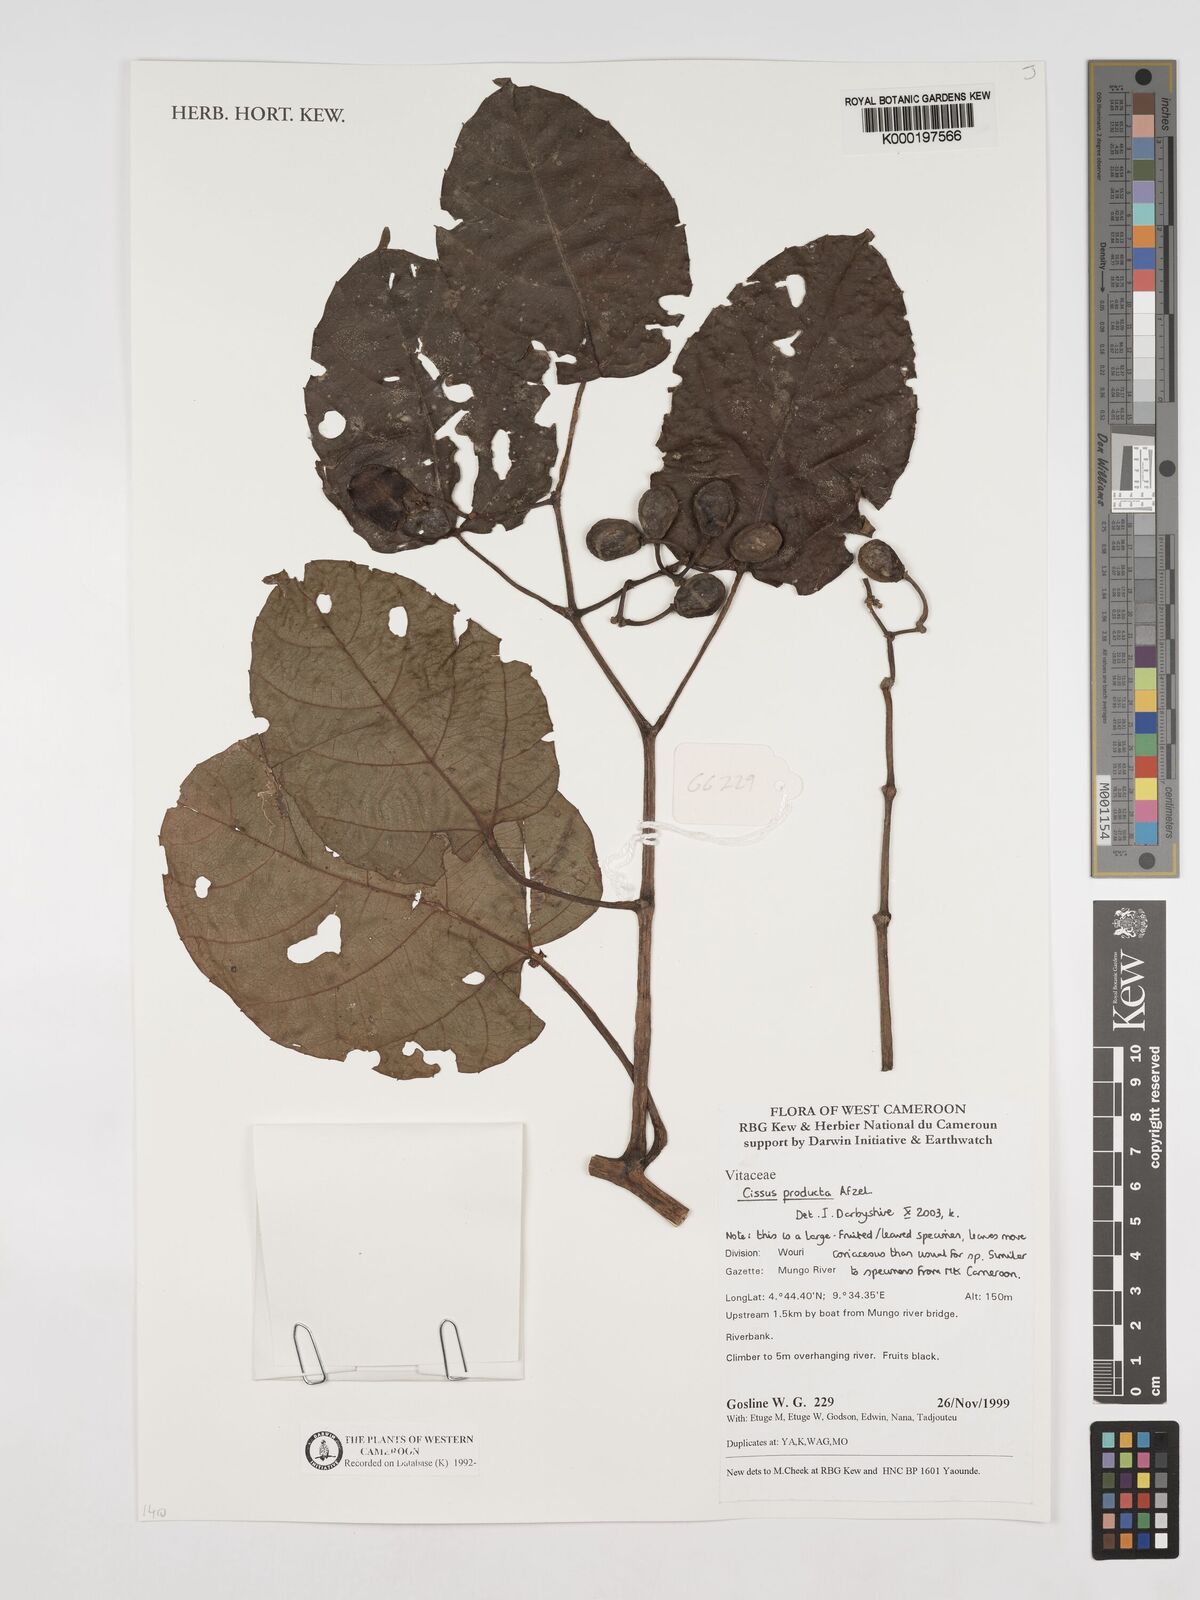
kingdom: Plantae
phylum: Tracheophyta
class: Magnoliopsida
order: Vitales
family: Vitaceae
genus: Cissus
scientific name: Cissus producta
